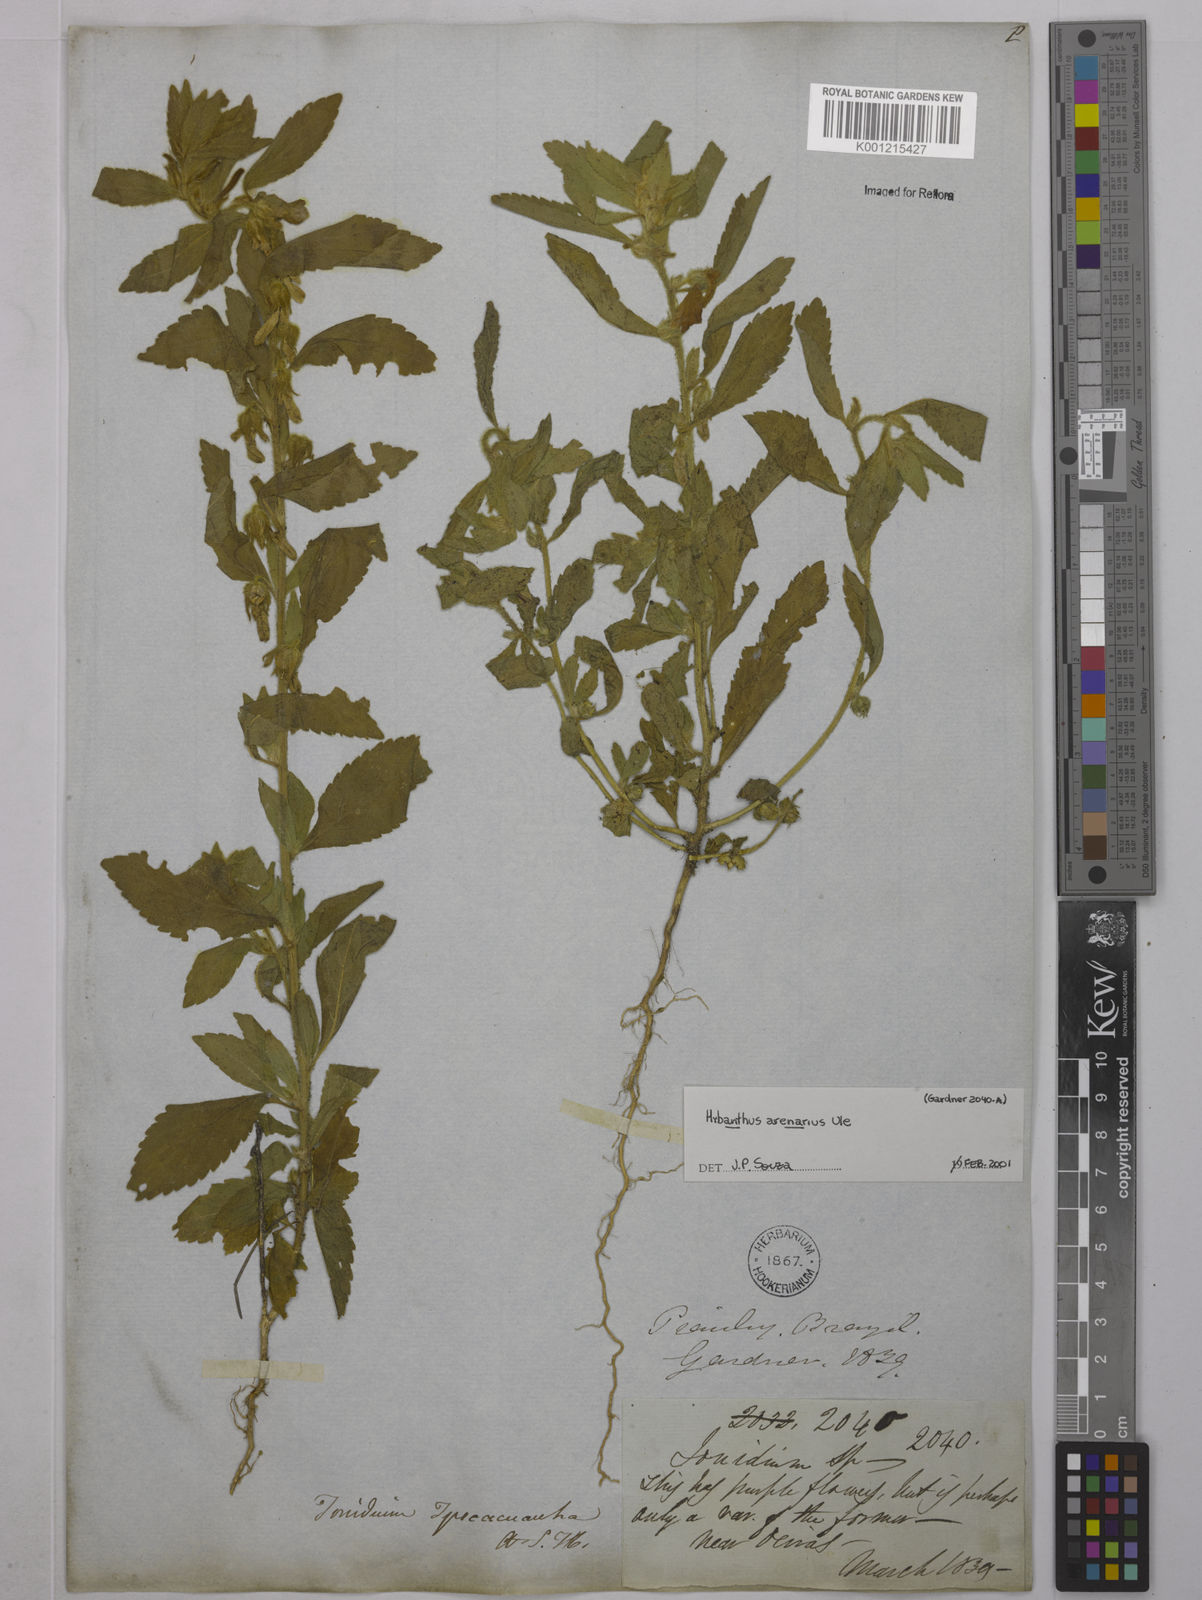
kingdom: Plantae
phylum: Tracheophyta
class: Magnoliopsida
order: Malpighiales
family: Violaceae
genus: Pombalia
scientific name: Pombalia arenaria
